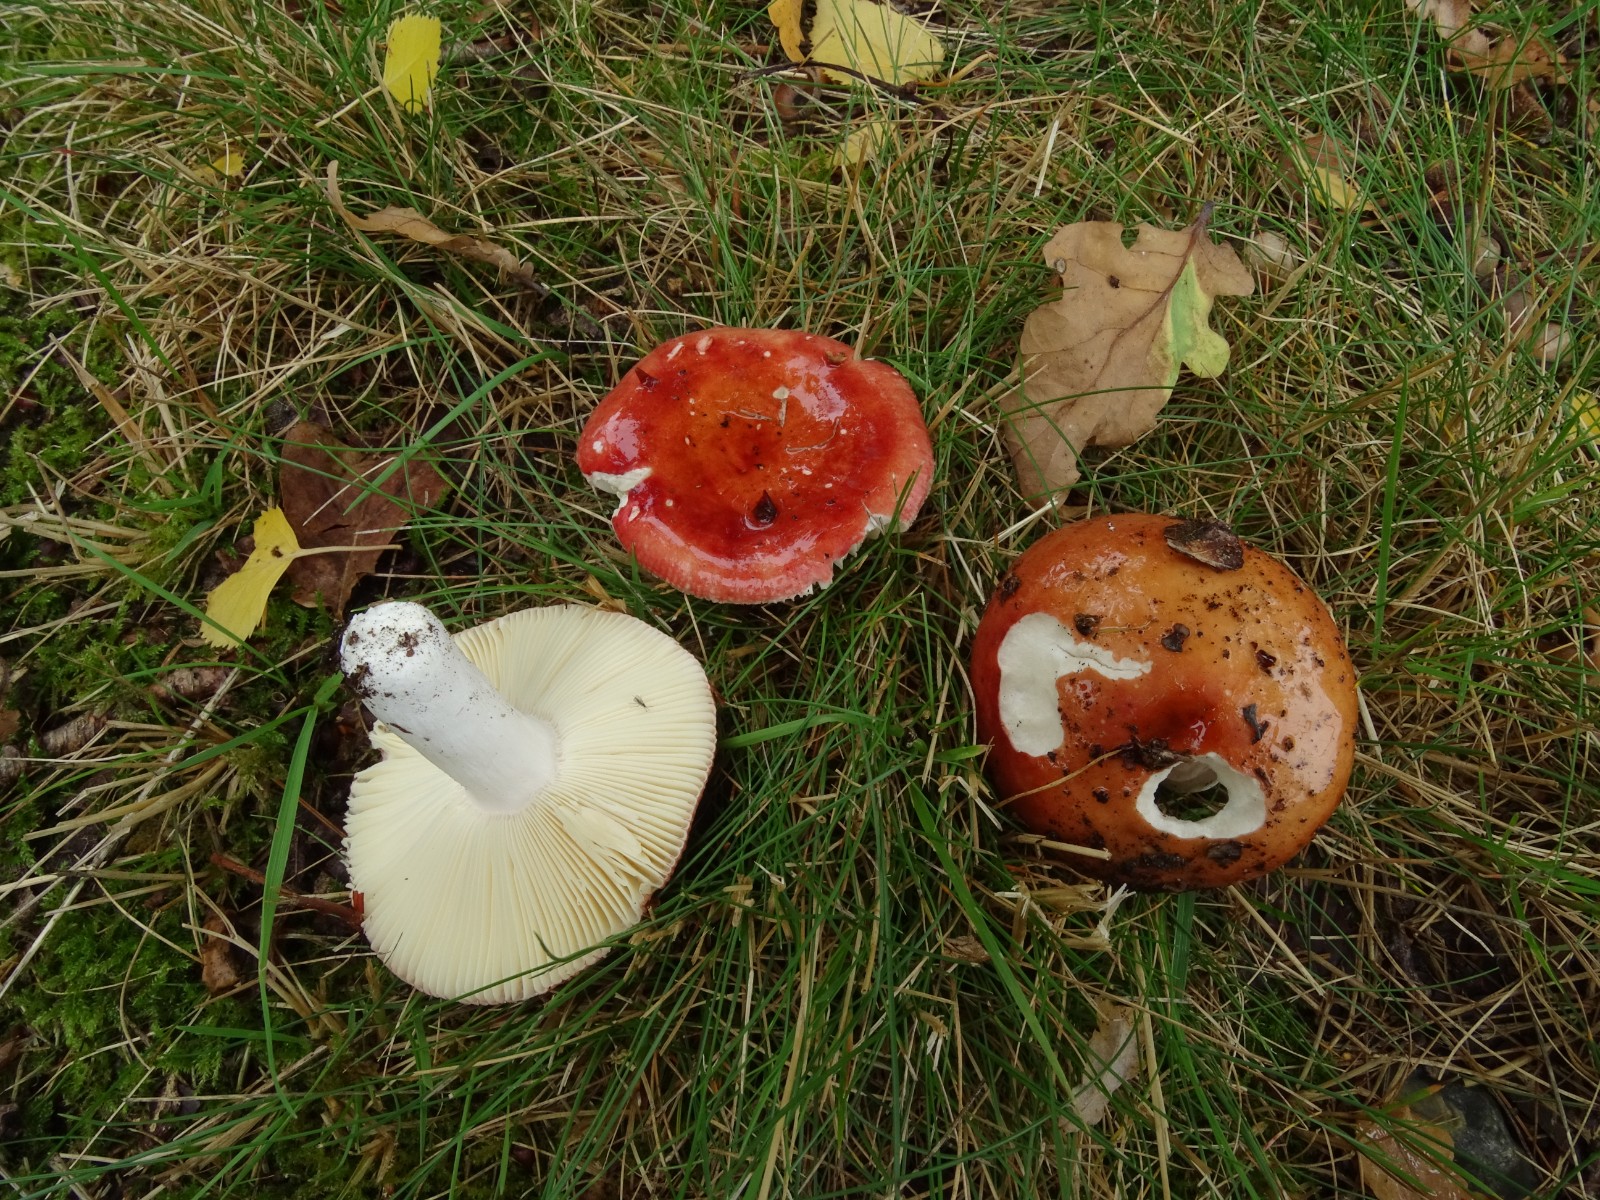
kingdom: Fungi
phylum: Basidiomycota
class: Agaricomycetes
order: Russulales
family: Russulaceae
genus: Russula
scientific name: Russula velenovskyi
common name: orangerød skørhat
